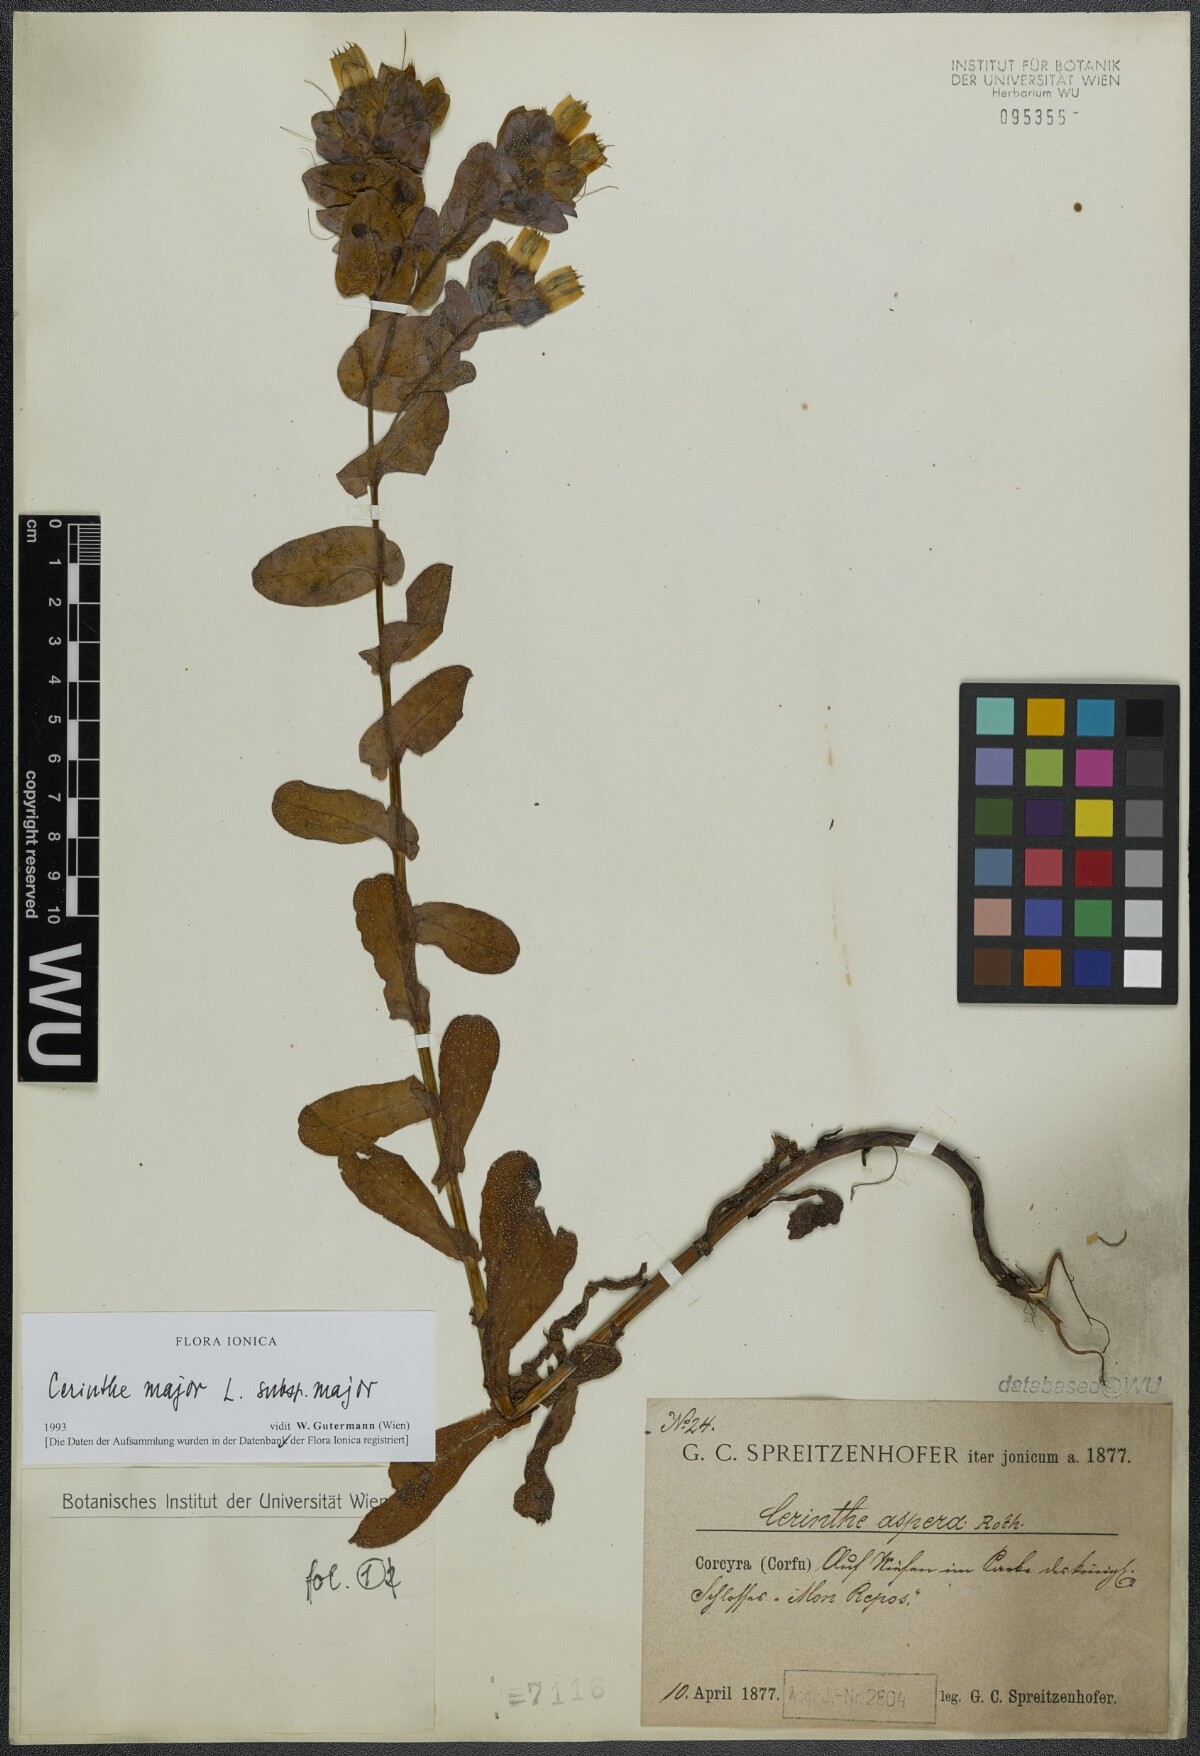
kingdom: Plantae
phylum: Tracheophyta
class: Magnoliopsida
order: Boraginales
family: Boraginaceae
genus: Cerinthe
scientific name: Cerinthe major
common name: Greater honeywort
